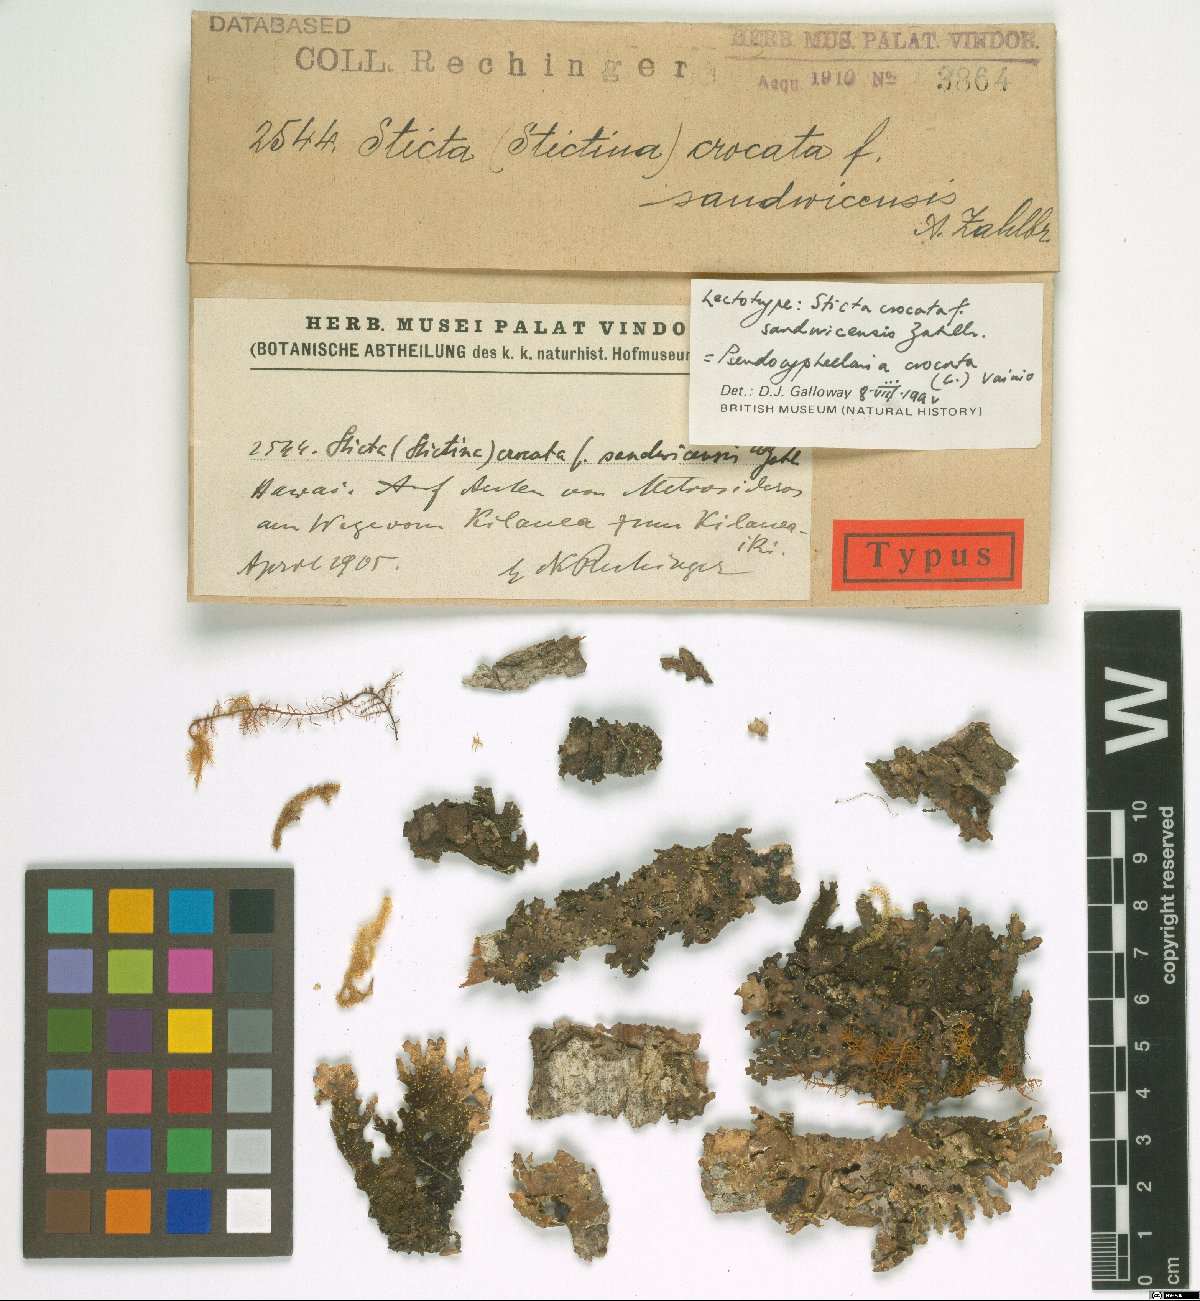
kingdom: Fungi
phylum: Ascomycota
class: Lecanoromycetes
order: Peltigerales
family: Lobariaceae
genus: Pseudocyphellaria
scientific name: Pseudocyphellaria sandwicensis
